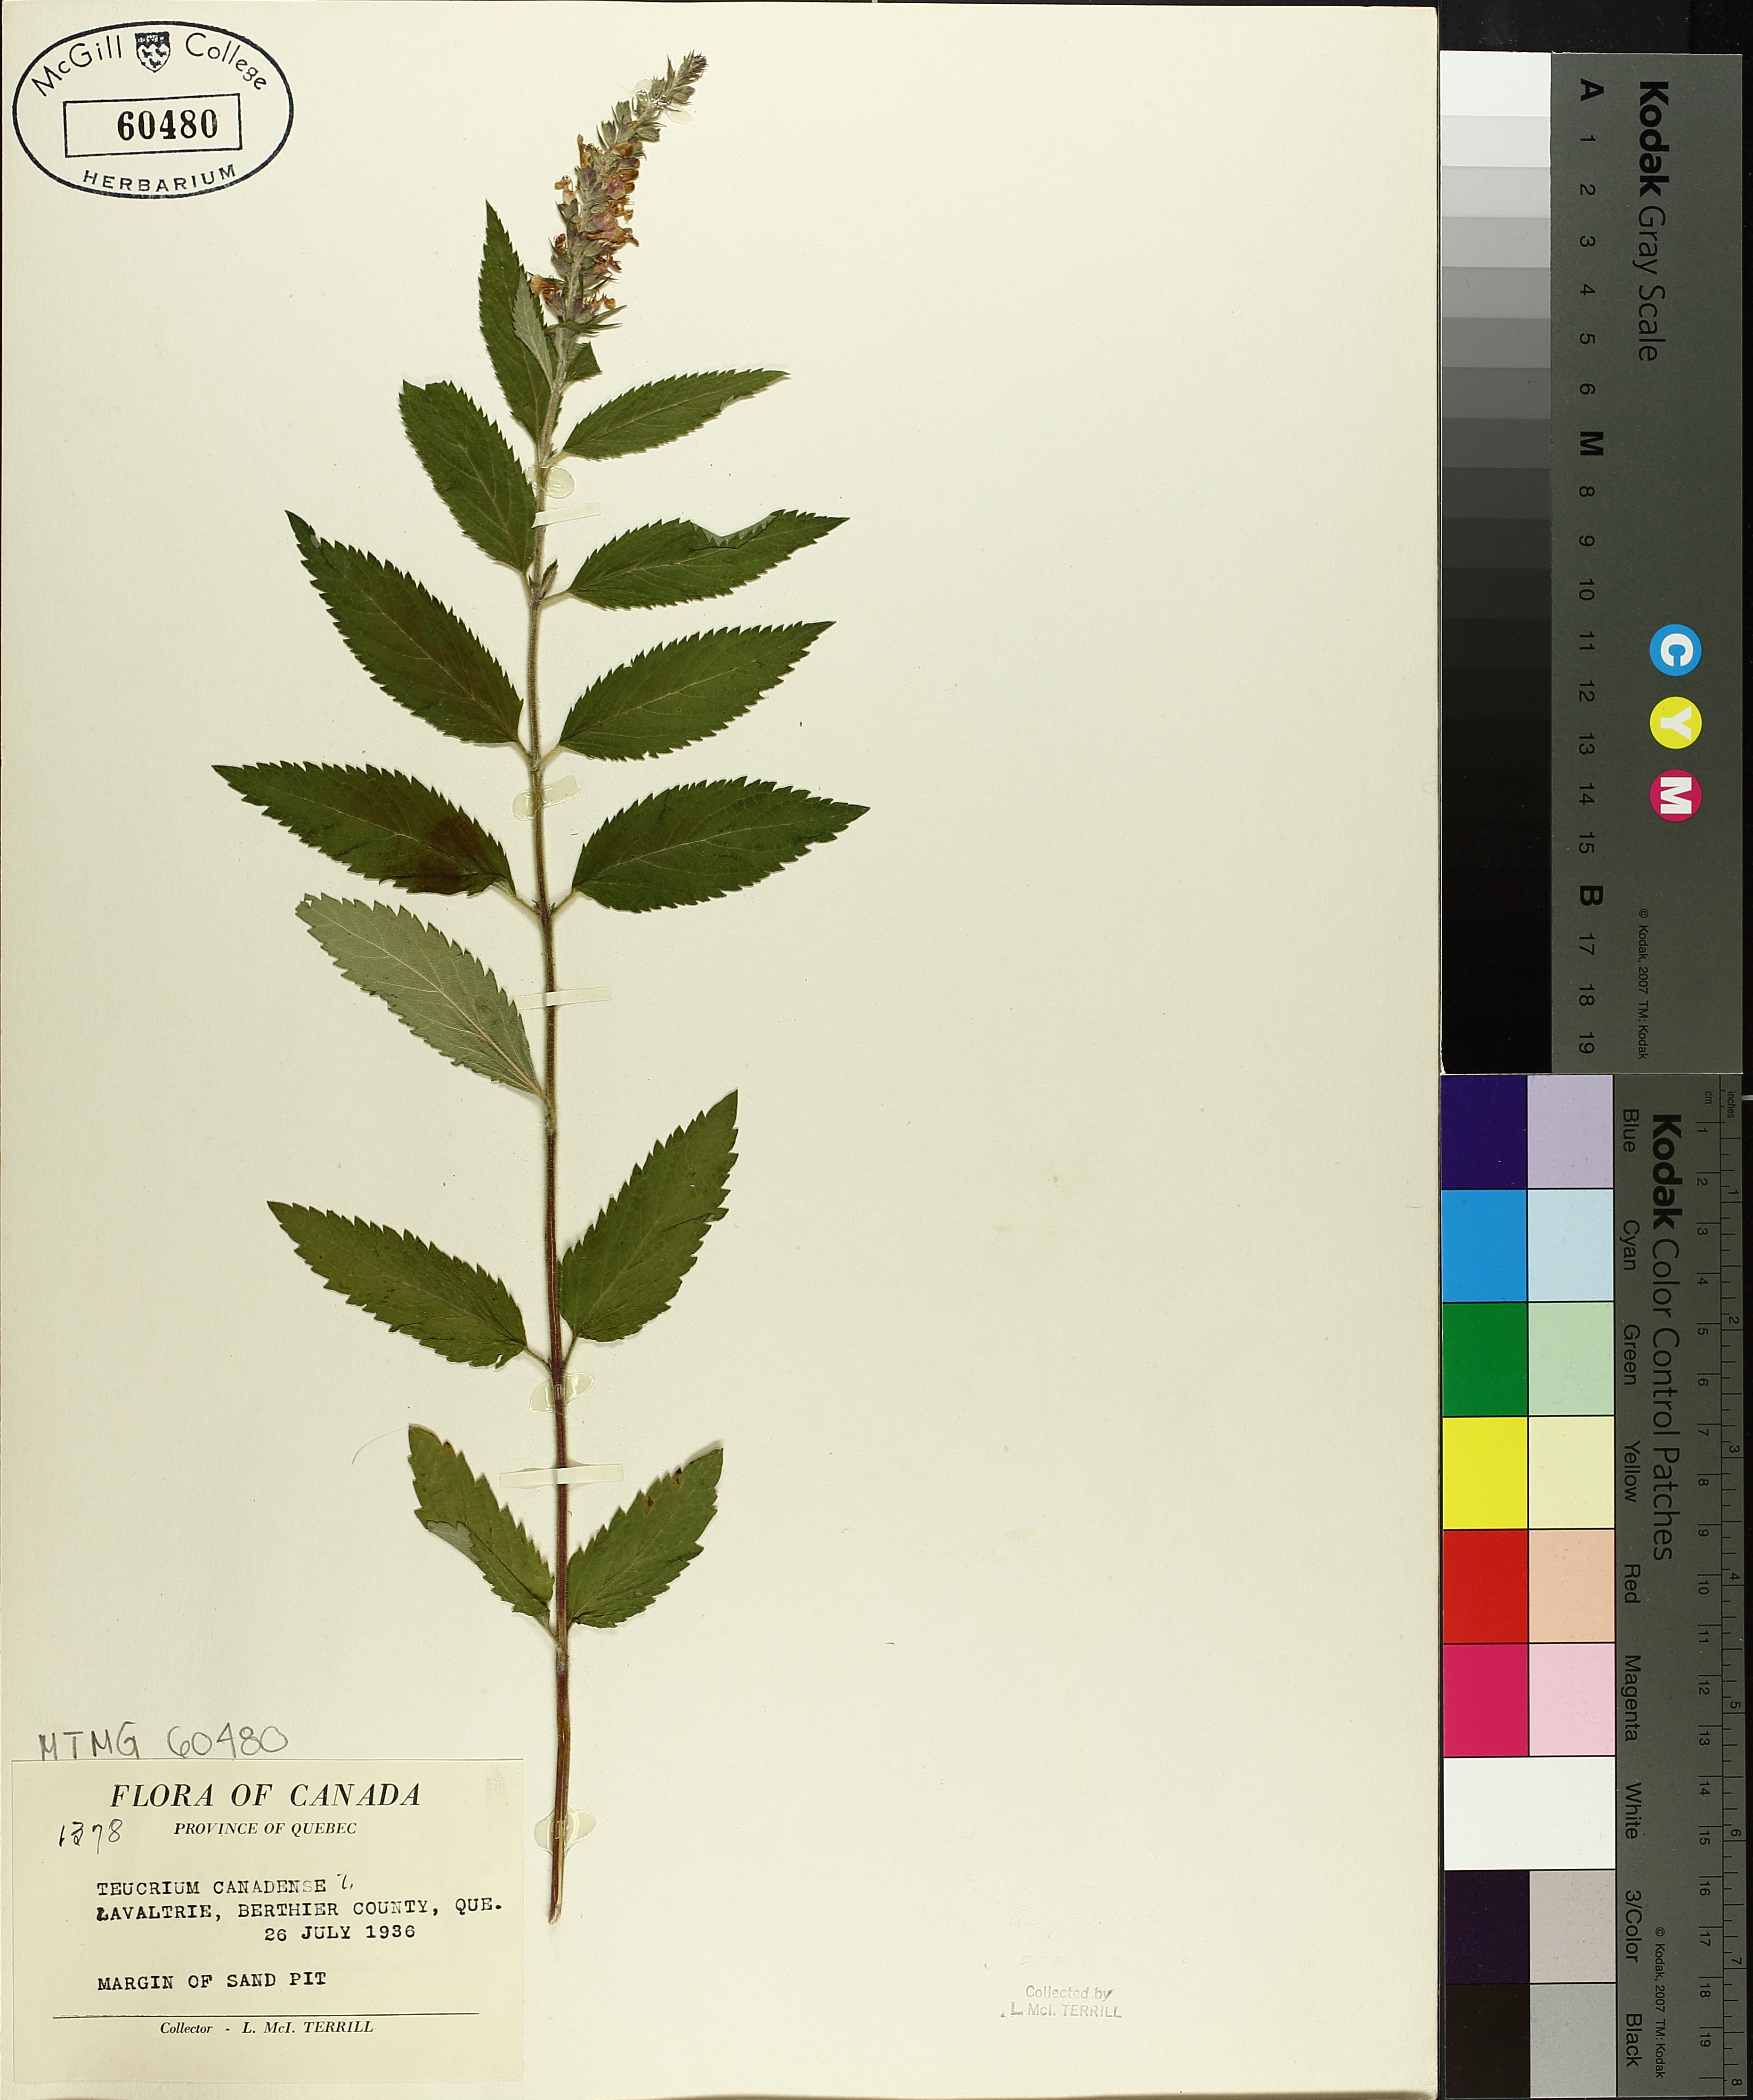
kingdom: Plantae
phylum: Tracheophyta
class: Magnoliopsida
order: Lamiales
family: Lamiaceae
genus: Teucrium
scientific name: Teucrium canadense
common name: American germander
